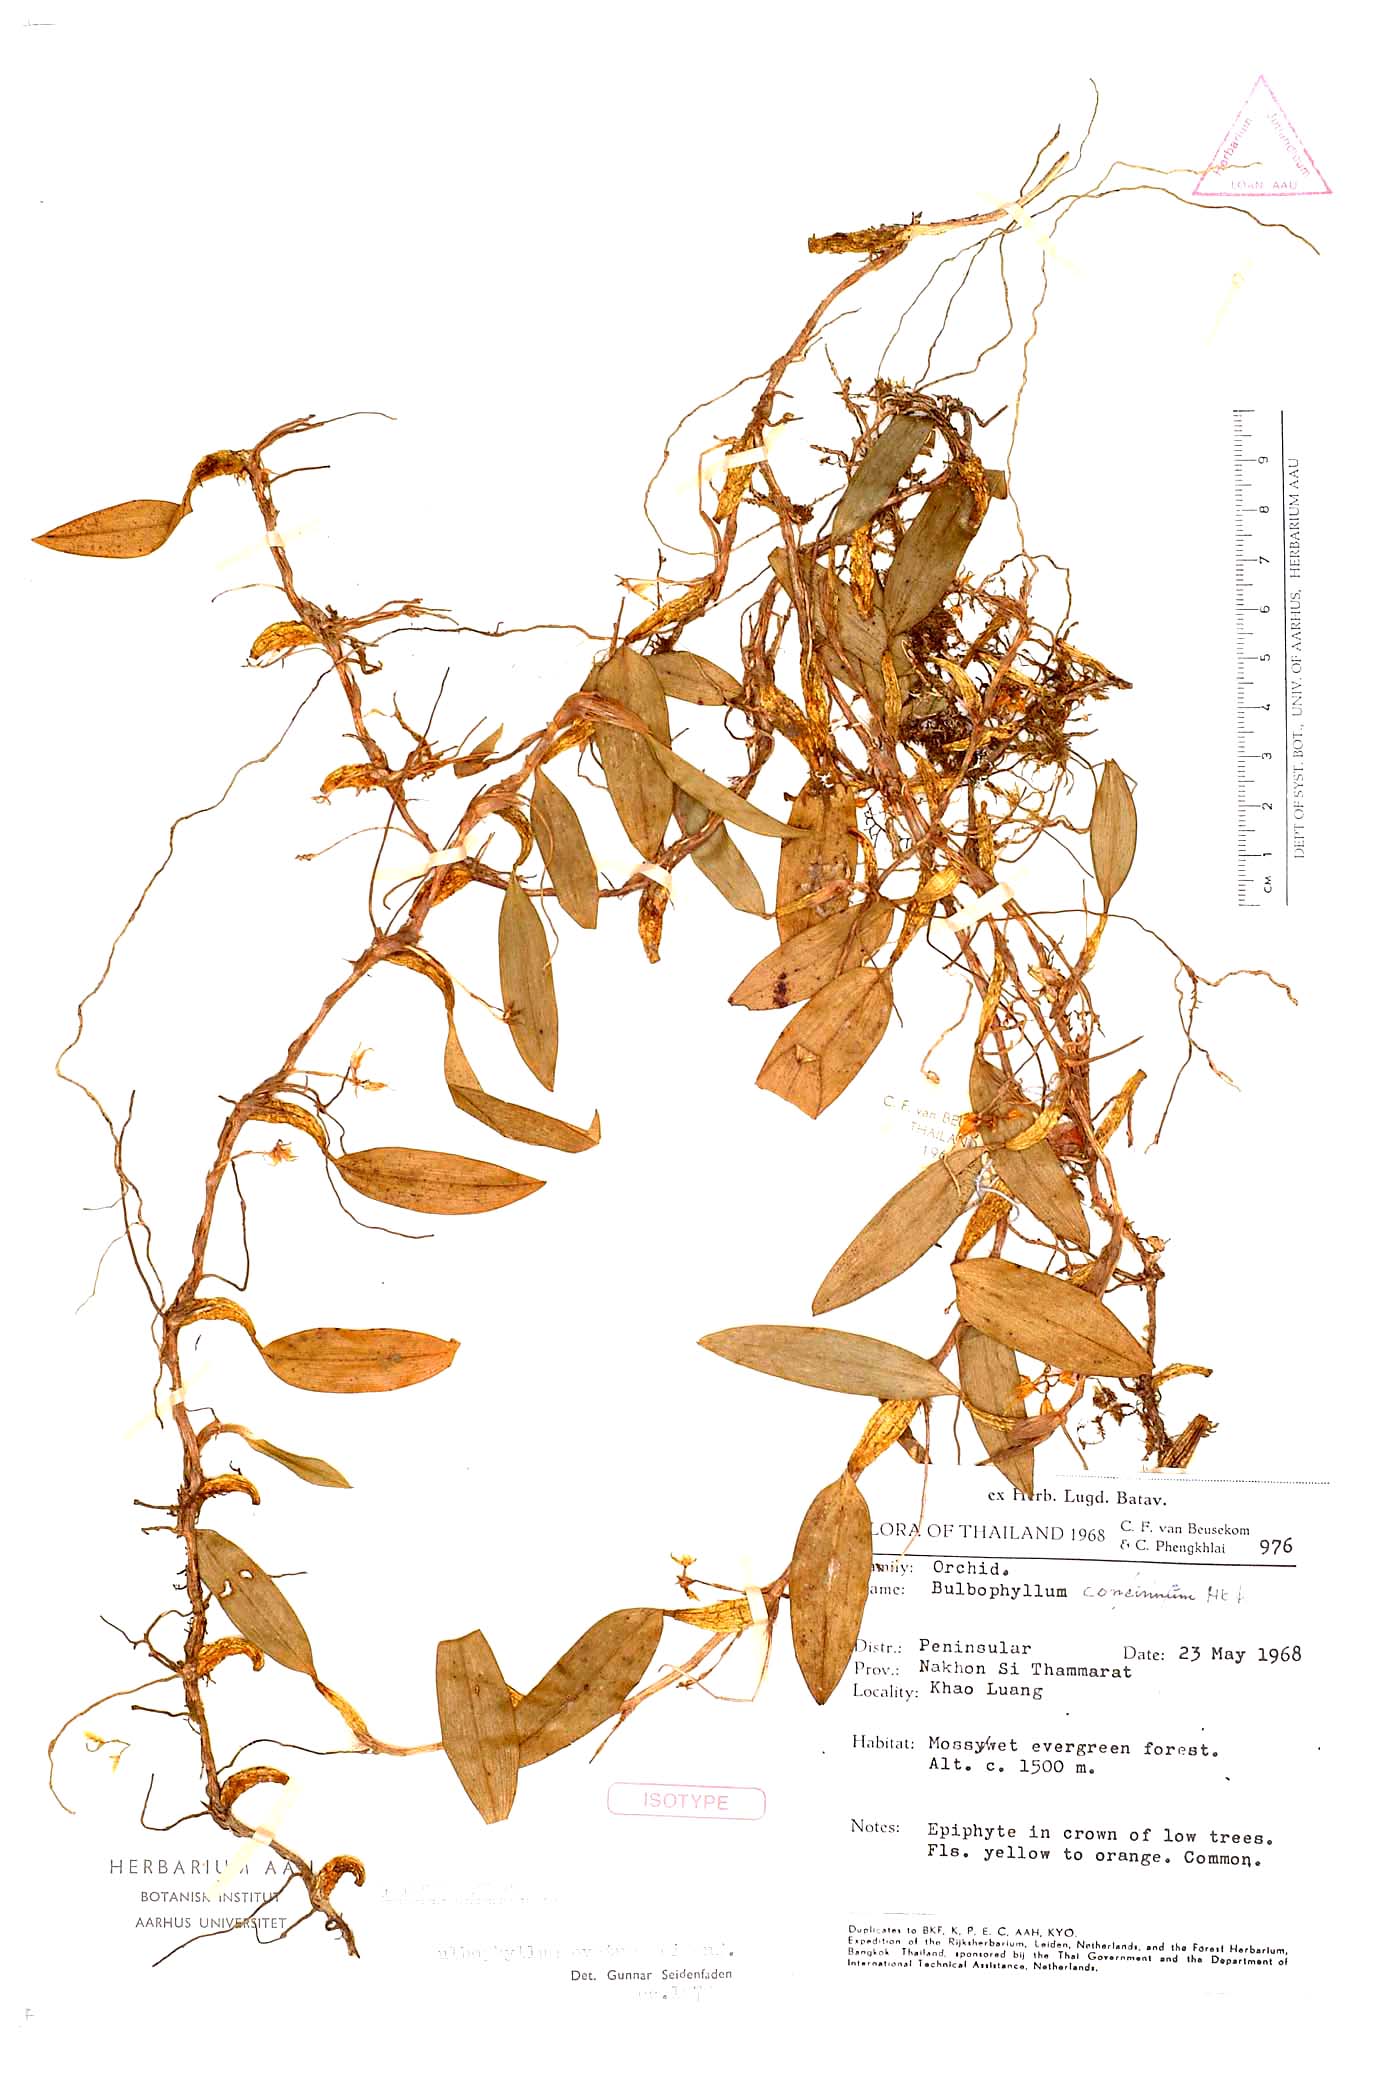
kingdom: Plantae
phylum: Tracheophyta
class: Liliopsida
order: Asparagales
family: Orchidaceae
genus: Bulbophyllum
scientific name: Bulbophyllum ovatum
